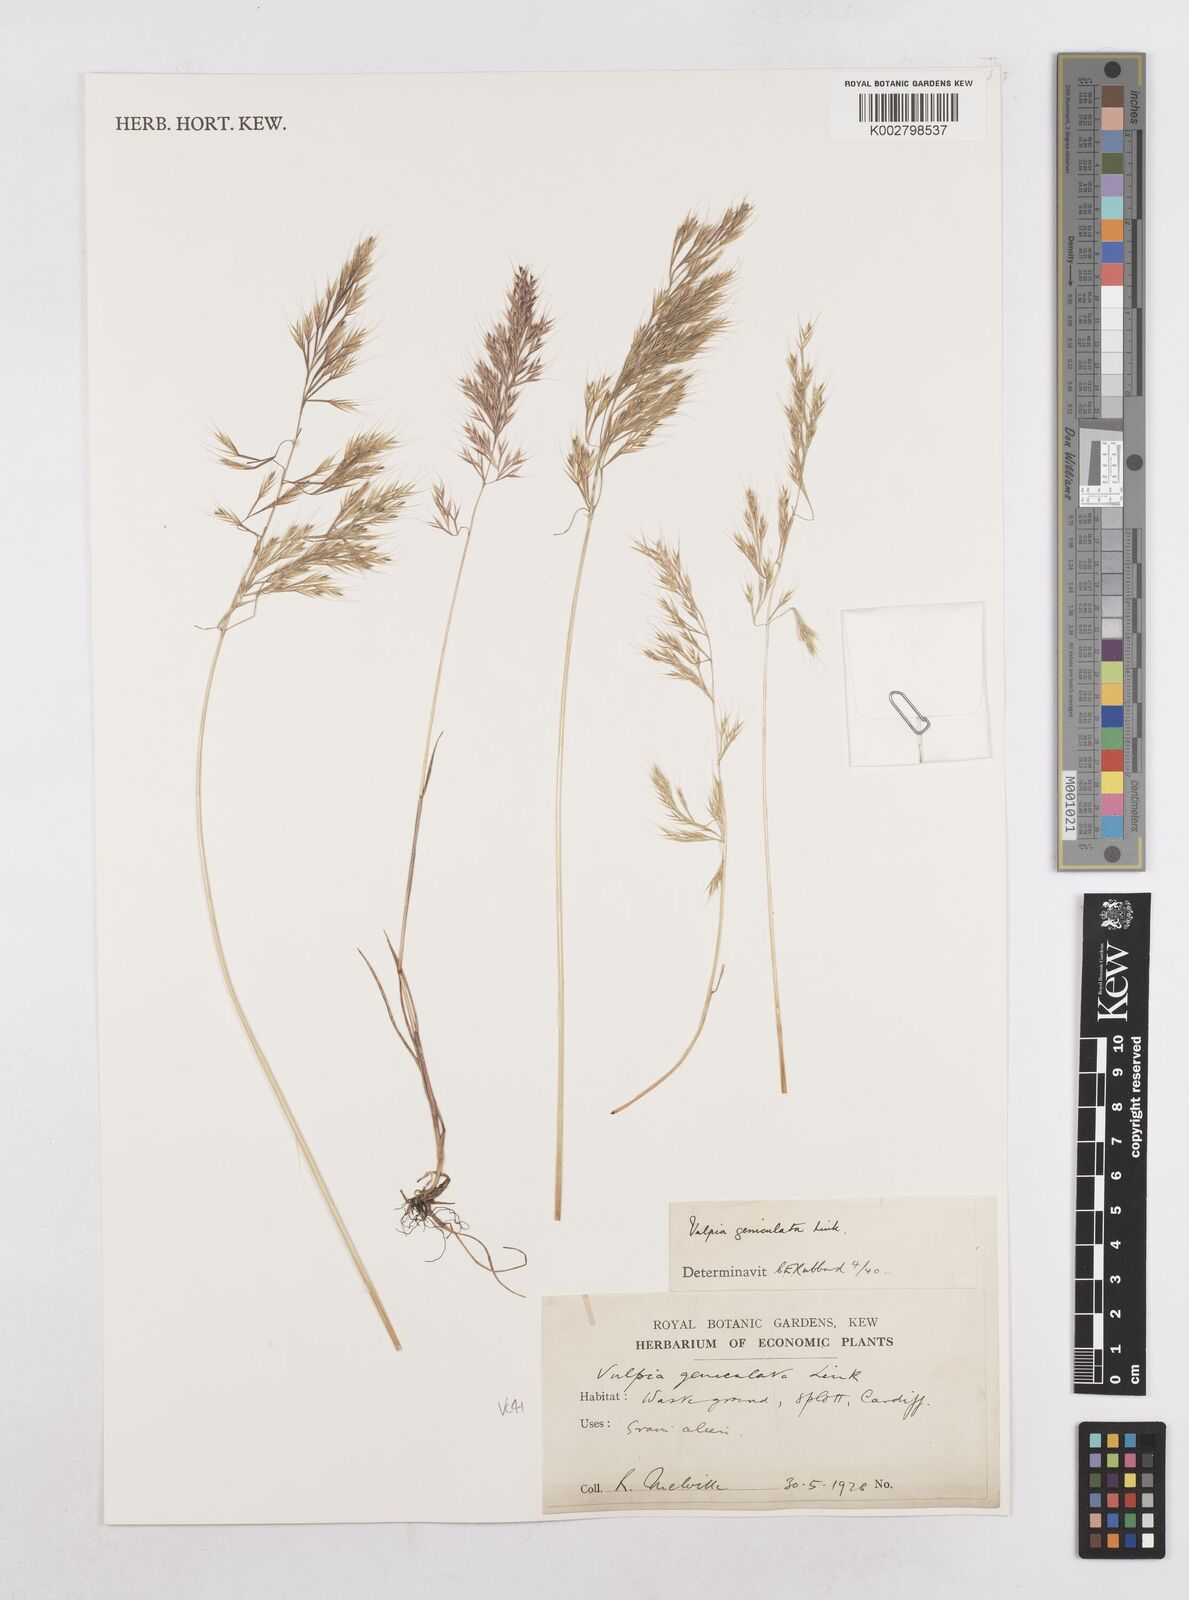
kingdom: Plantae
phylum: Tracheophyta
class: Liliopsida
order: Poales
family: Poaceae
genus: Festuca
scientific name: Festuca geniculata
